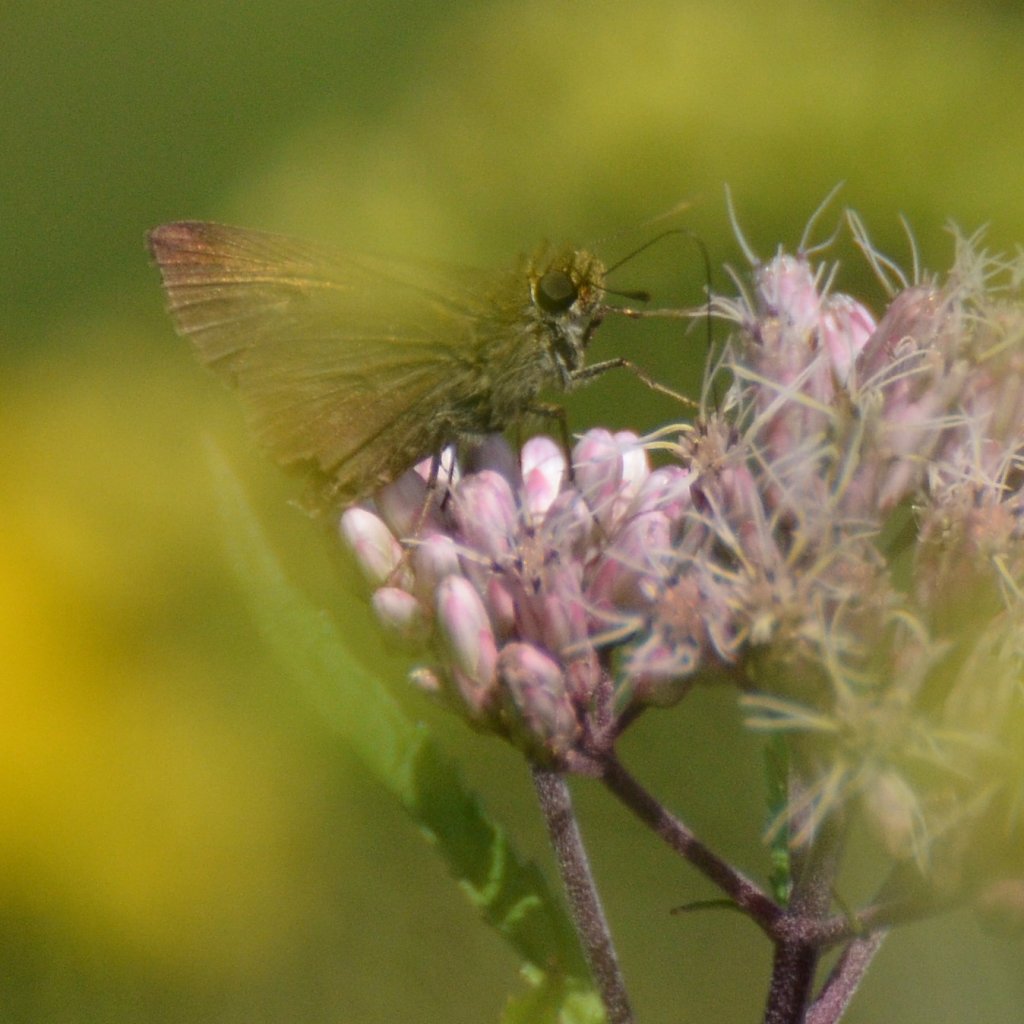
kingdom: Animalia
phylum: Arthropoda
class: Insecta
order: Lepidoptera
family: Hesperiidae
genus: Euphyes
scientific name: Euphyes vestris
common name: Dun Skipper
